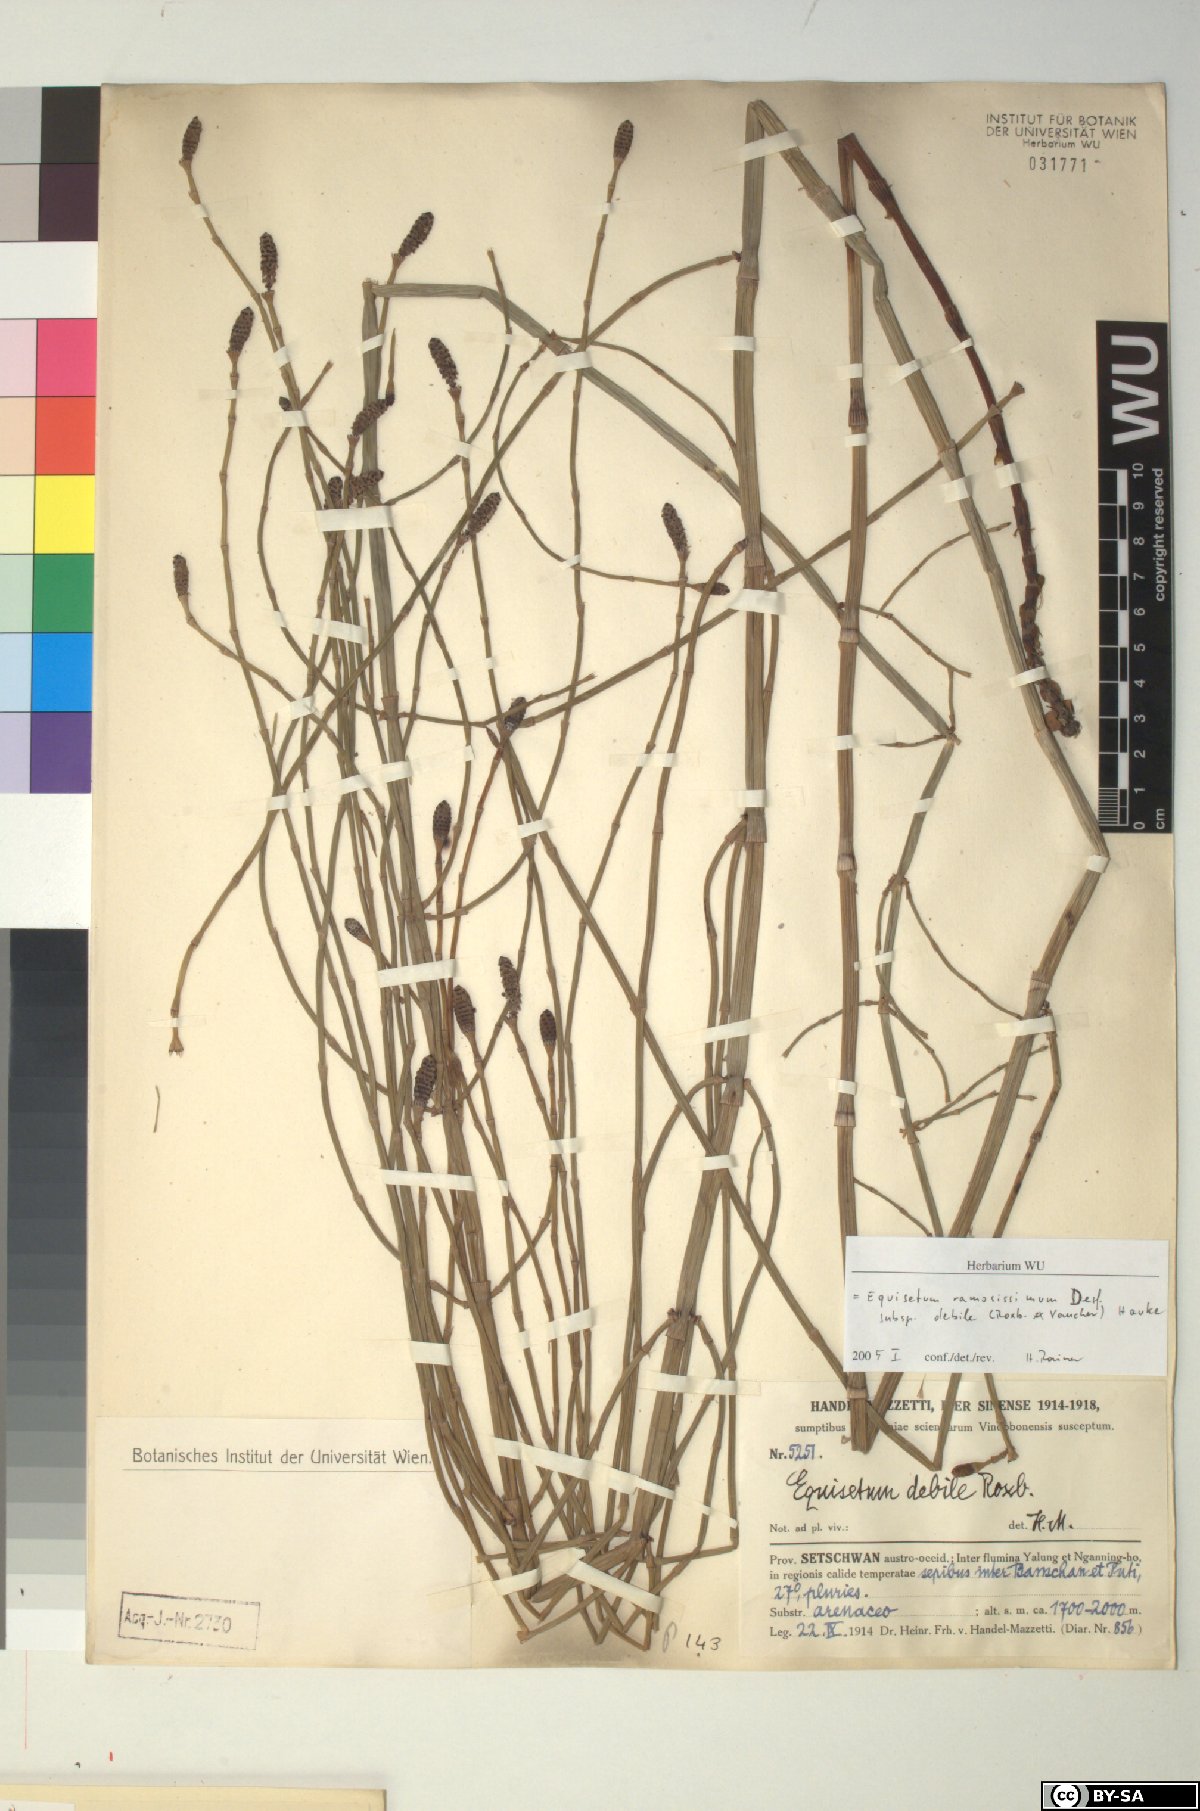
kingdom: Plantae
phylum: Tracheophyta
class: Polypodiopsida
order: Equisetales
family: Equisetaceae
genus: Equisetum
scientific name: Equisetum ramosissimum
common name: Branched horsetail
